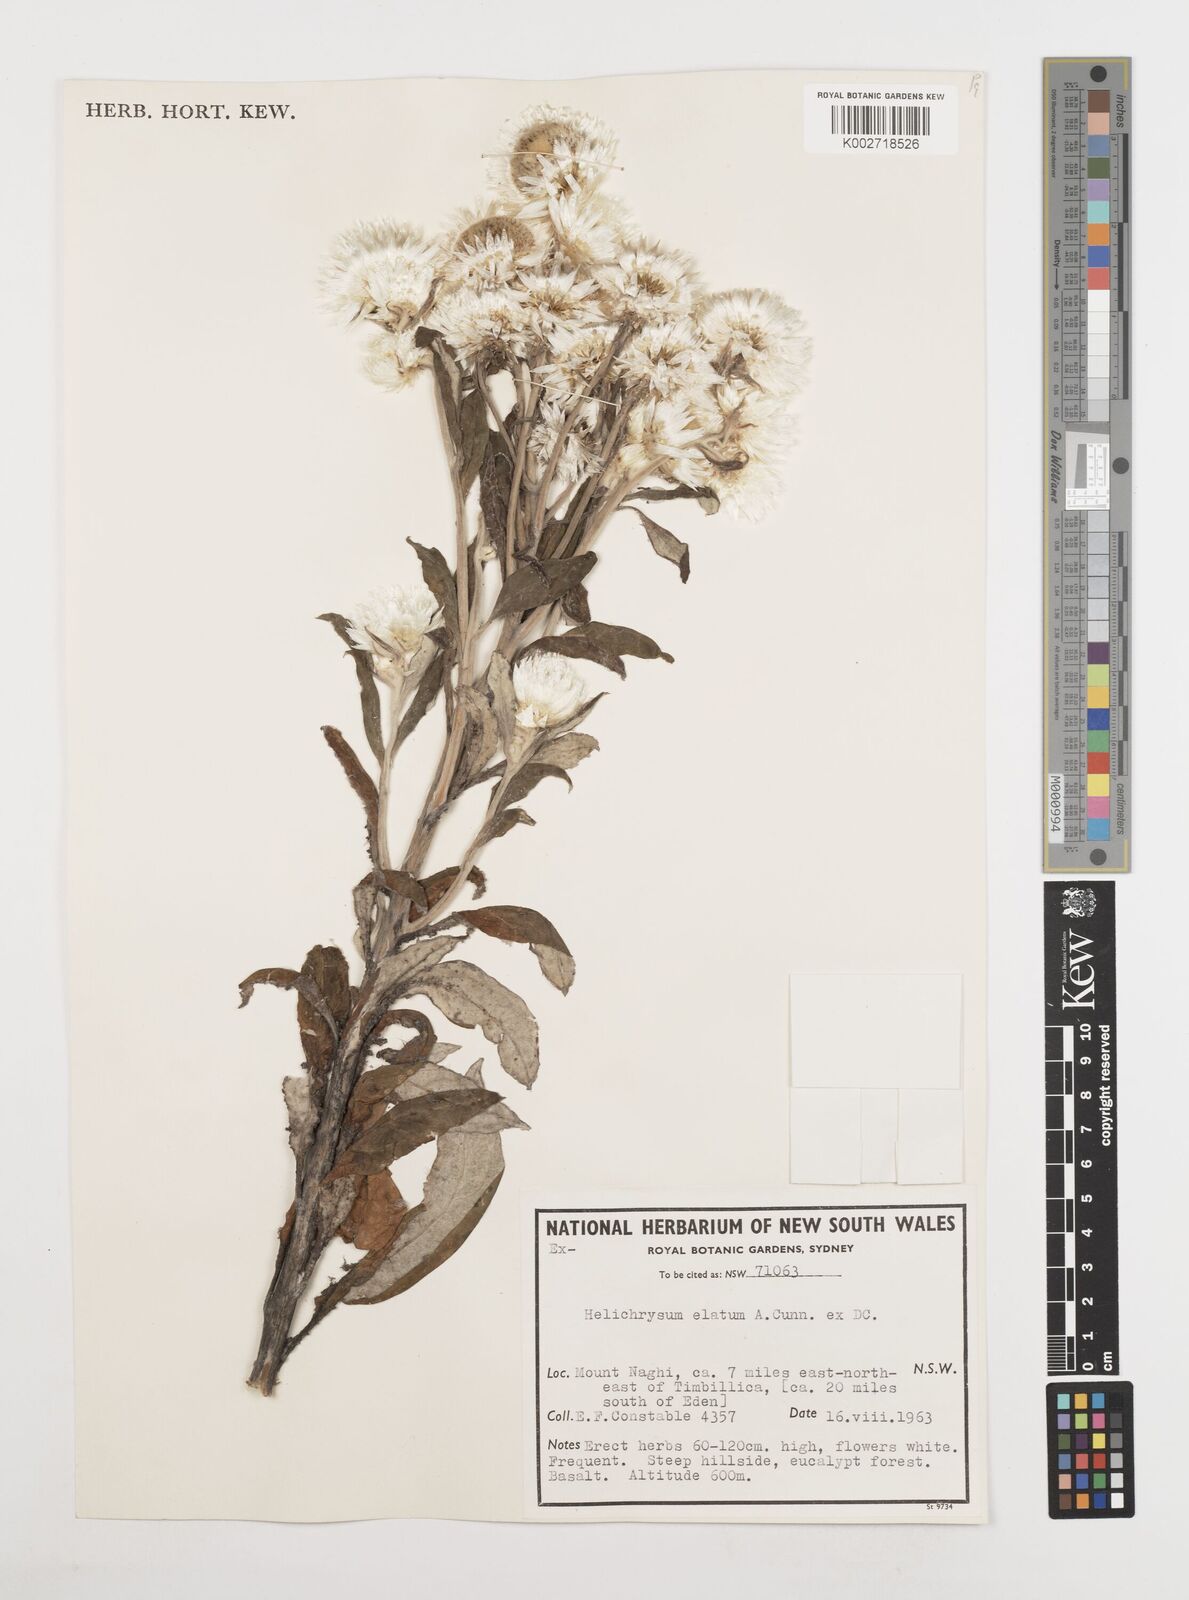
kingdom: Plantae
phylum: Tracheophyta
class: Magnoliopsida
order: Asterales
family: Asteraceae
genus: Leucozoma
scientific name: Leucozoma elatum
